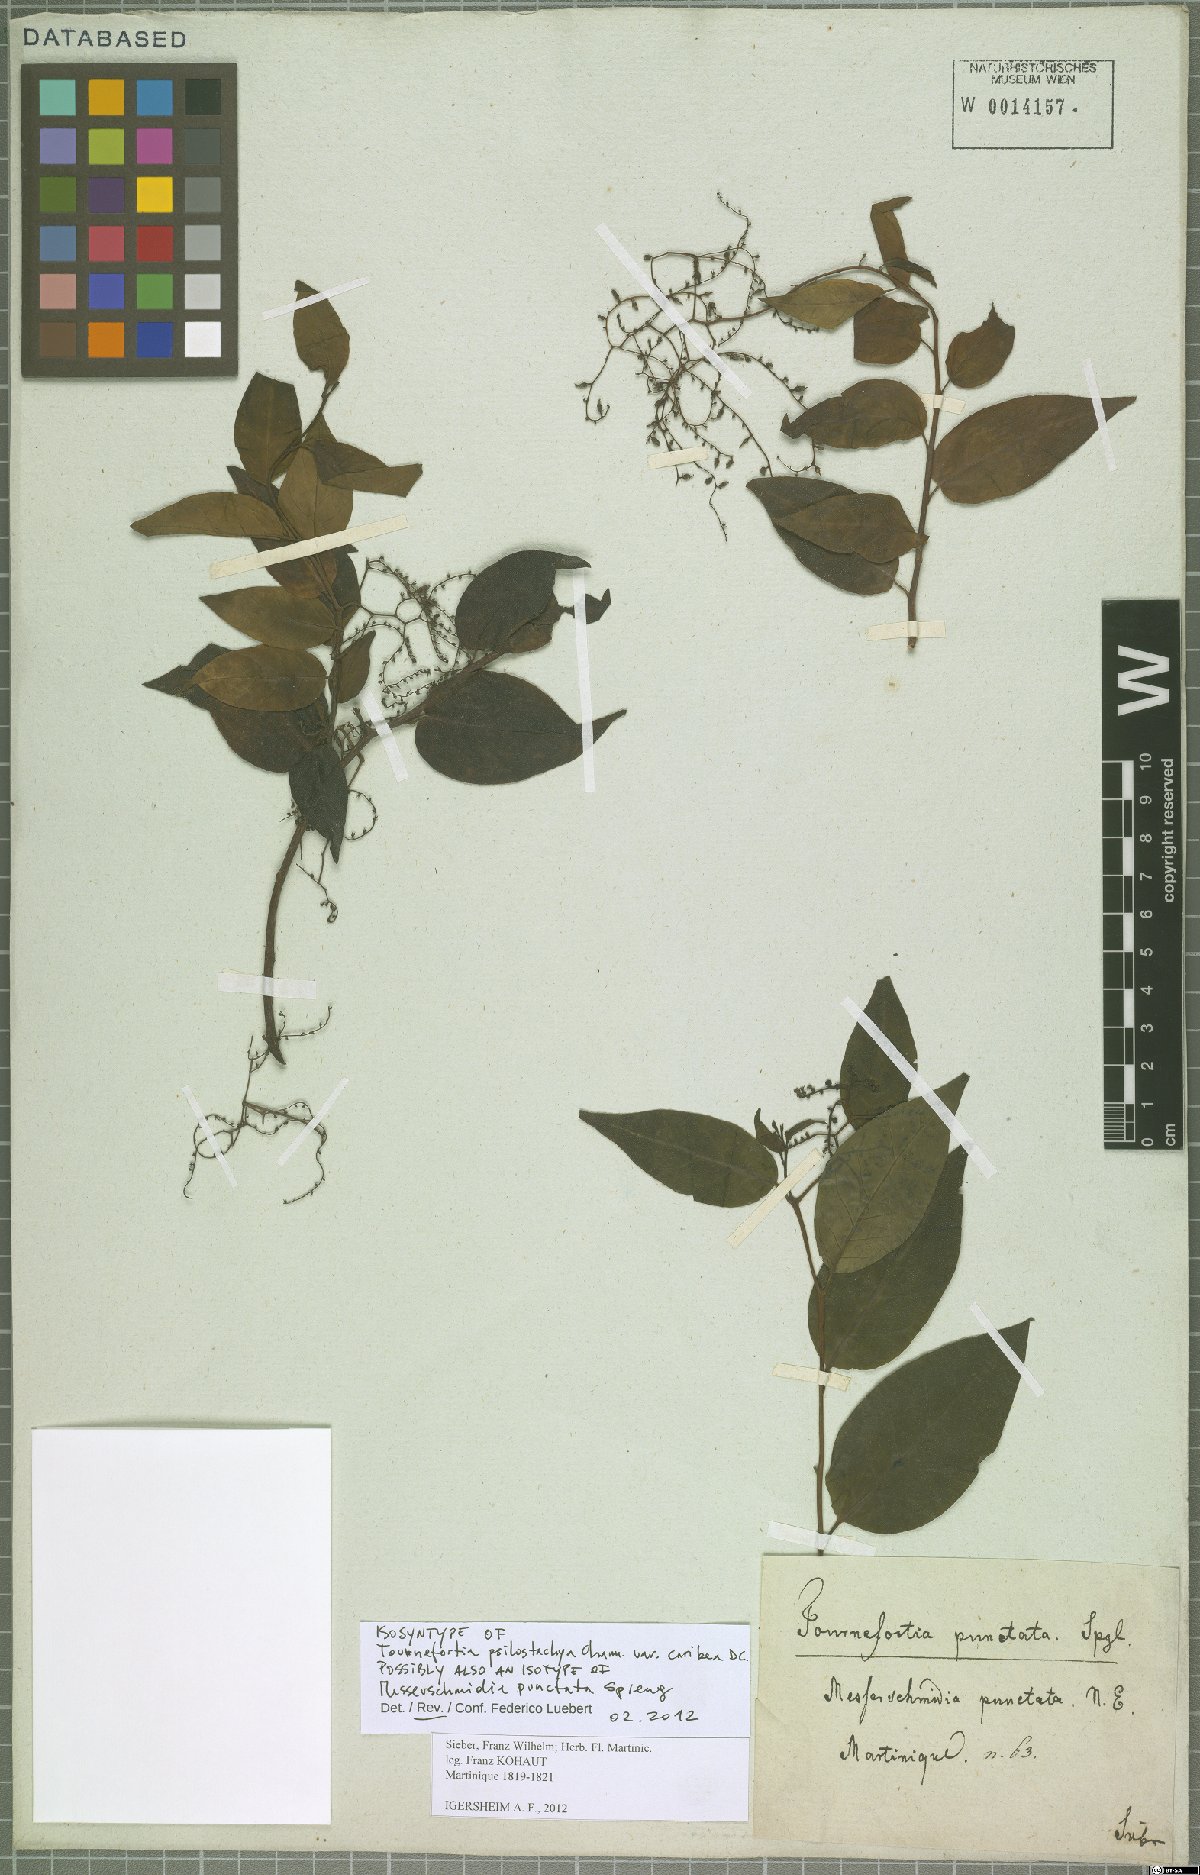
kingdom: Plantae
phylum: Tracheophyta
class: Magnoliopsida
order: Boraginales
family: Heliotropiaceae
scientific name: Heliotropiaceae
